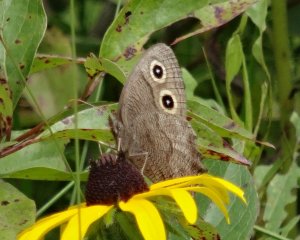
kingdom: Animalia
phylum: Arthropoda
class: Insecta
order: Lepidoptera
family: Nymphalidae
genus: Cercyonis
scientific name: Cercyonis pegala
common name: Common Wood-Nymph
